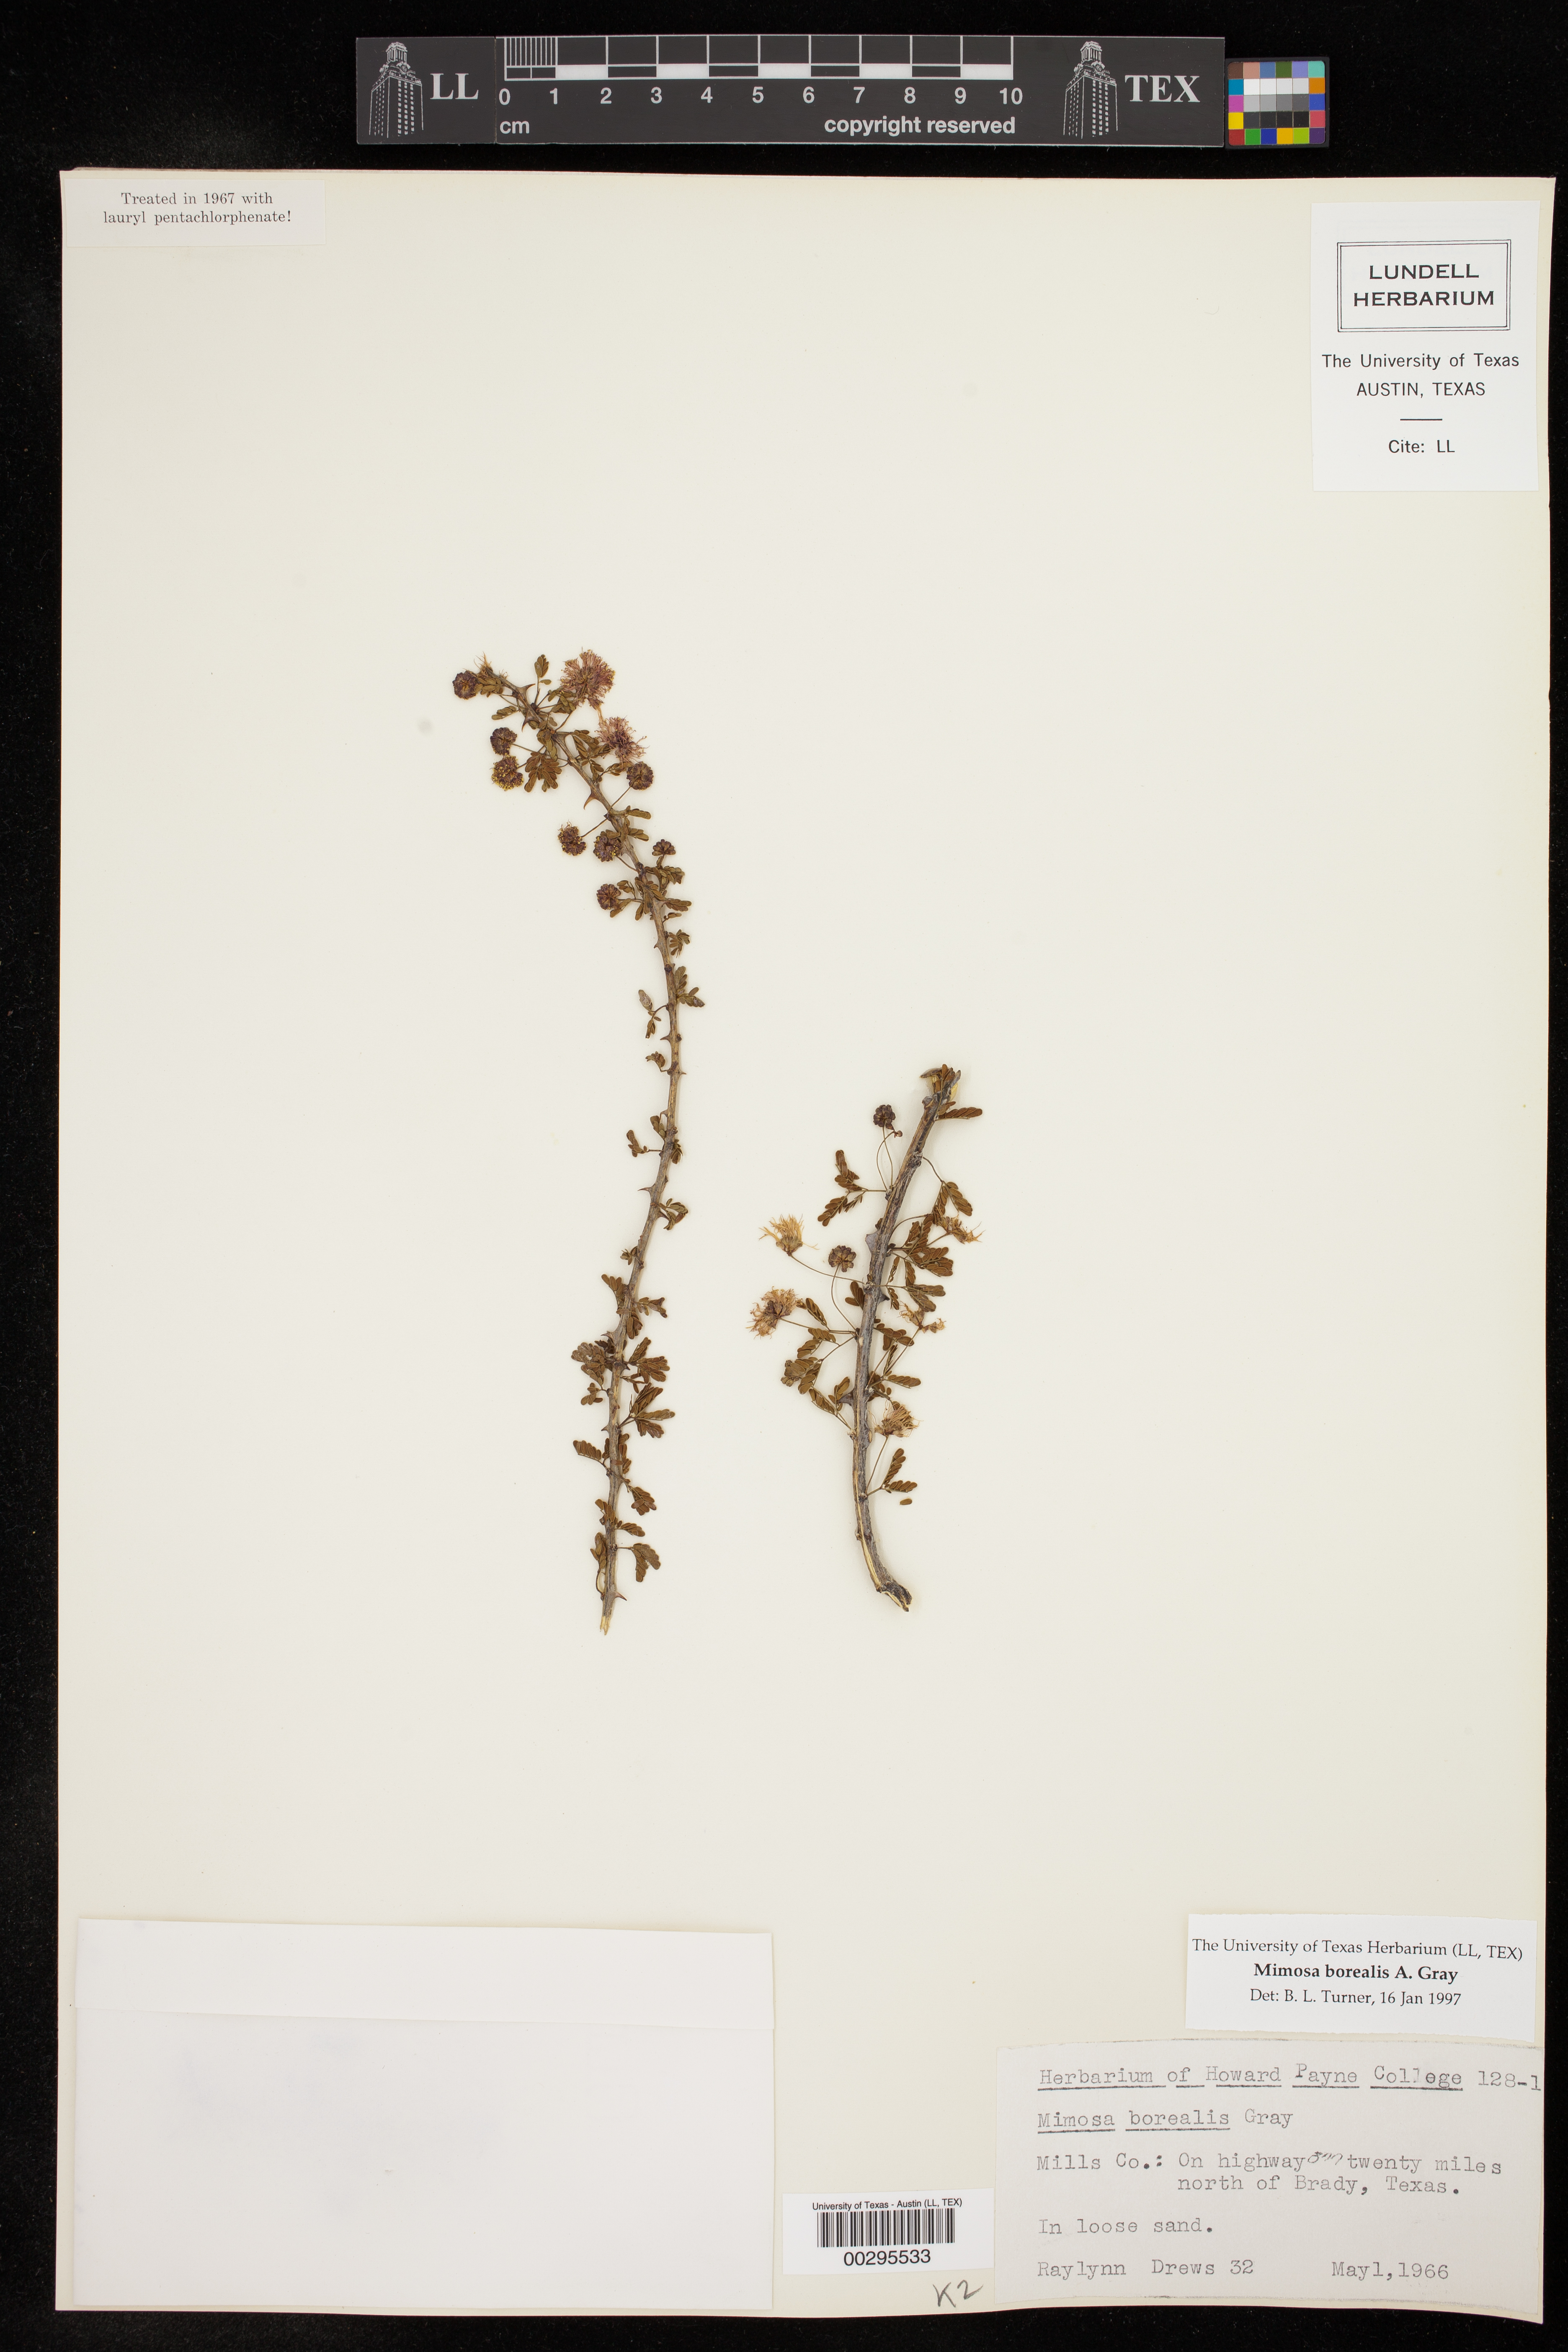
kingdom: Plantae
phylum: Tracheophyta
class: Magnoliopsida
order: Fabales
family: Fabaceae
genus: Mimosa
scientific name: Mimosa borealis
